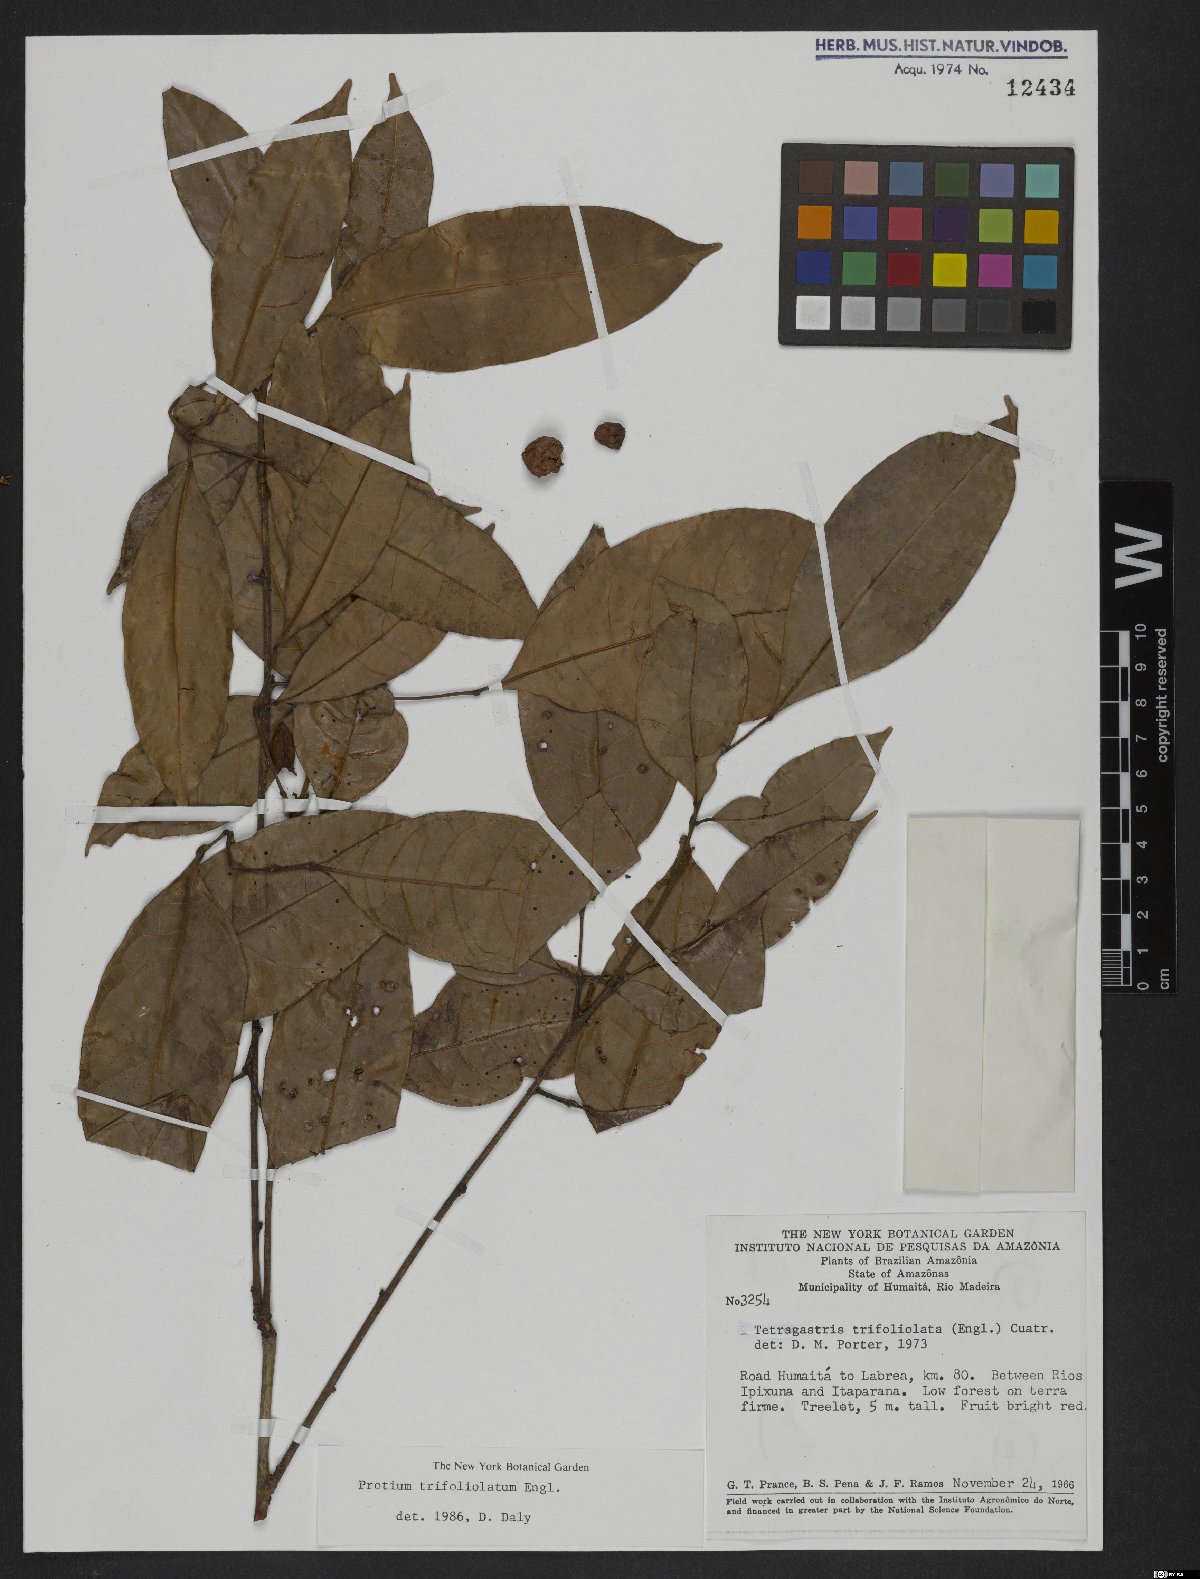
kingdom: Plantae
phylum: Tracheophyta
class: Magnoliopsida
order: Sapindales
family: Burseraceae
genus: Protium
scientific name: Protium trifoliolatum
